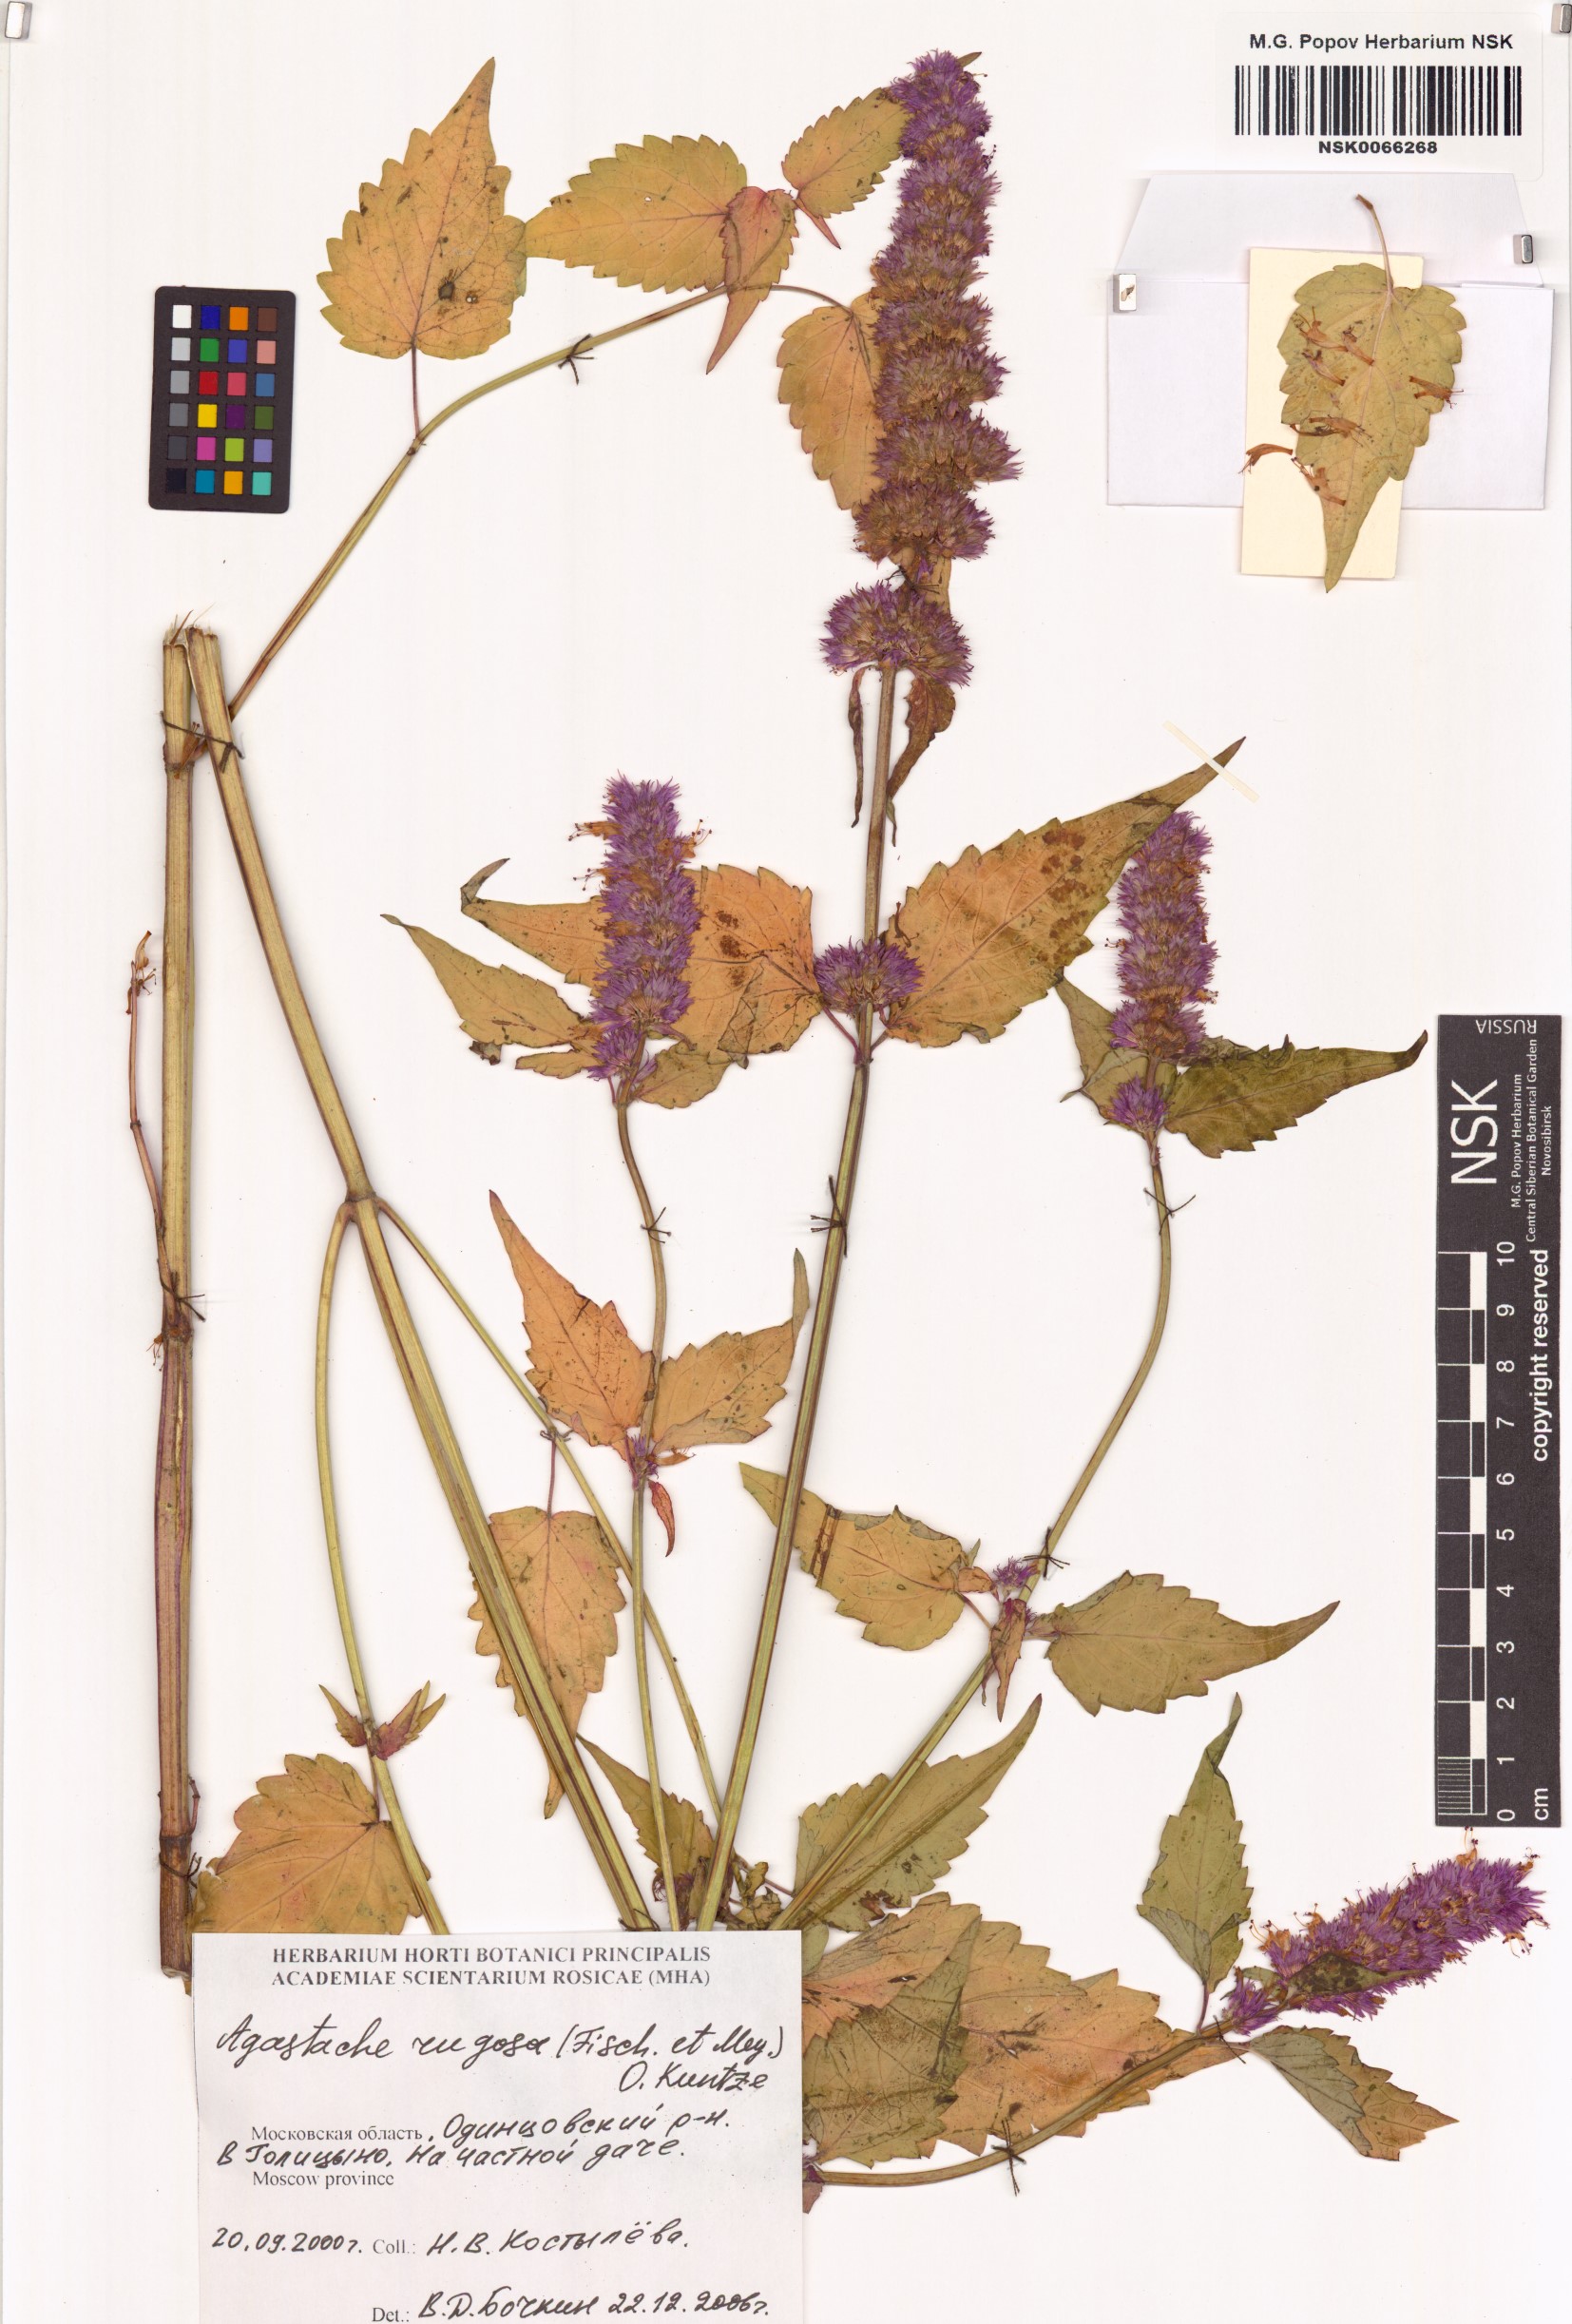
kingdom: Plantae
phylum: Tracheophyta
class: Magnoliopsida
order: Lamiales
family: Lamiaceae
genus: Agastache
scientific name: Agastache rugosa
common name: Mint
